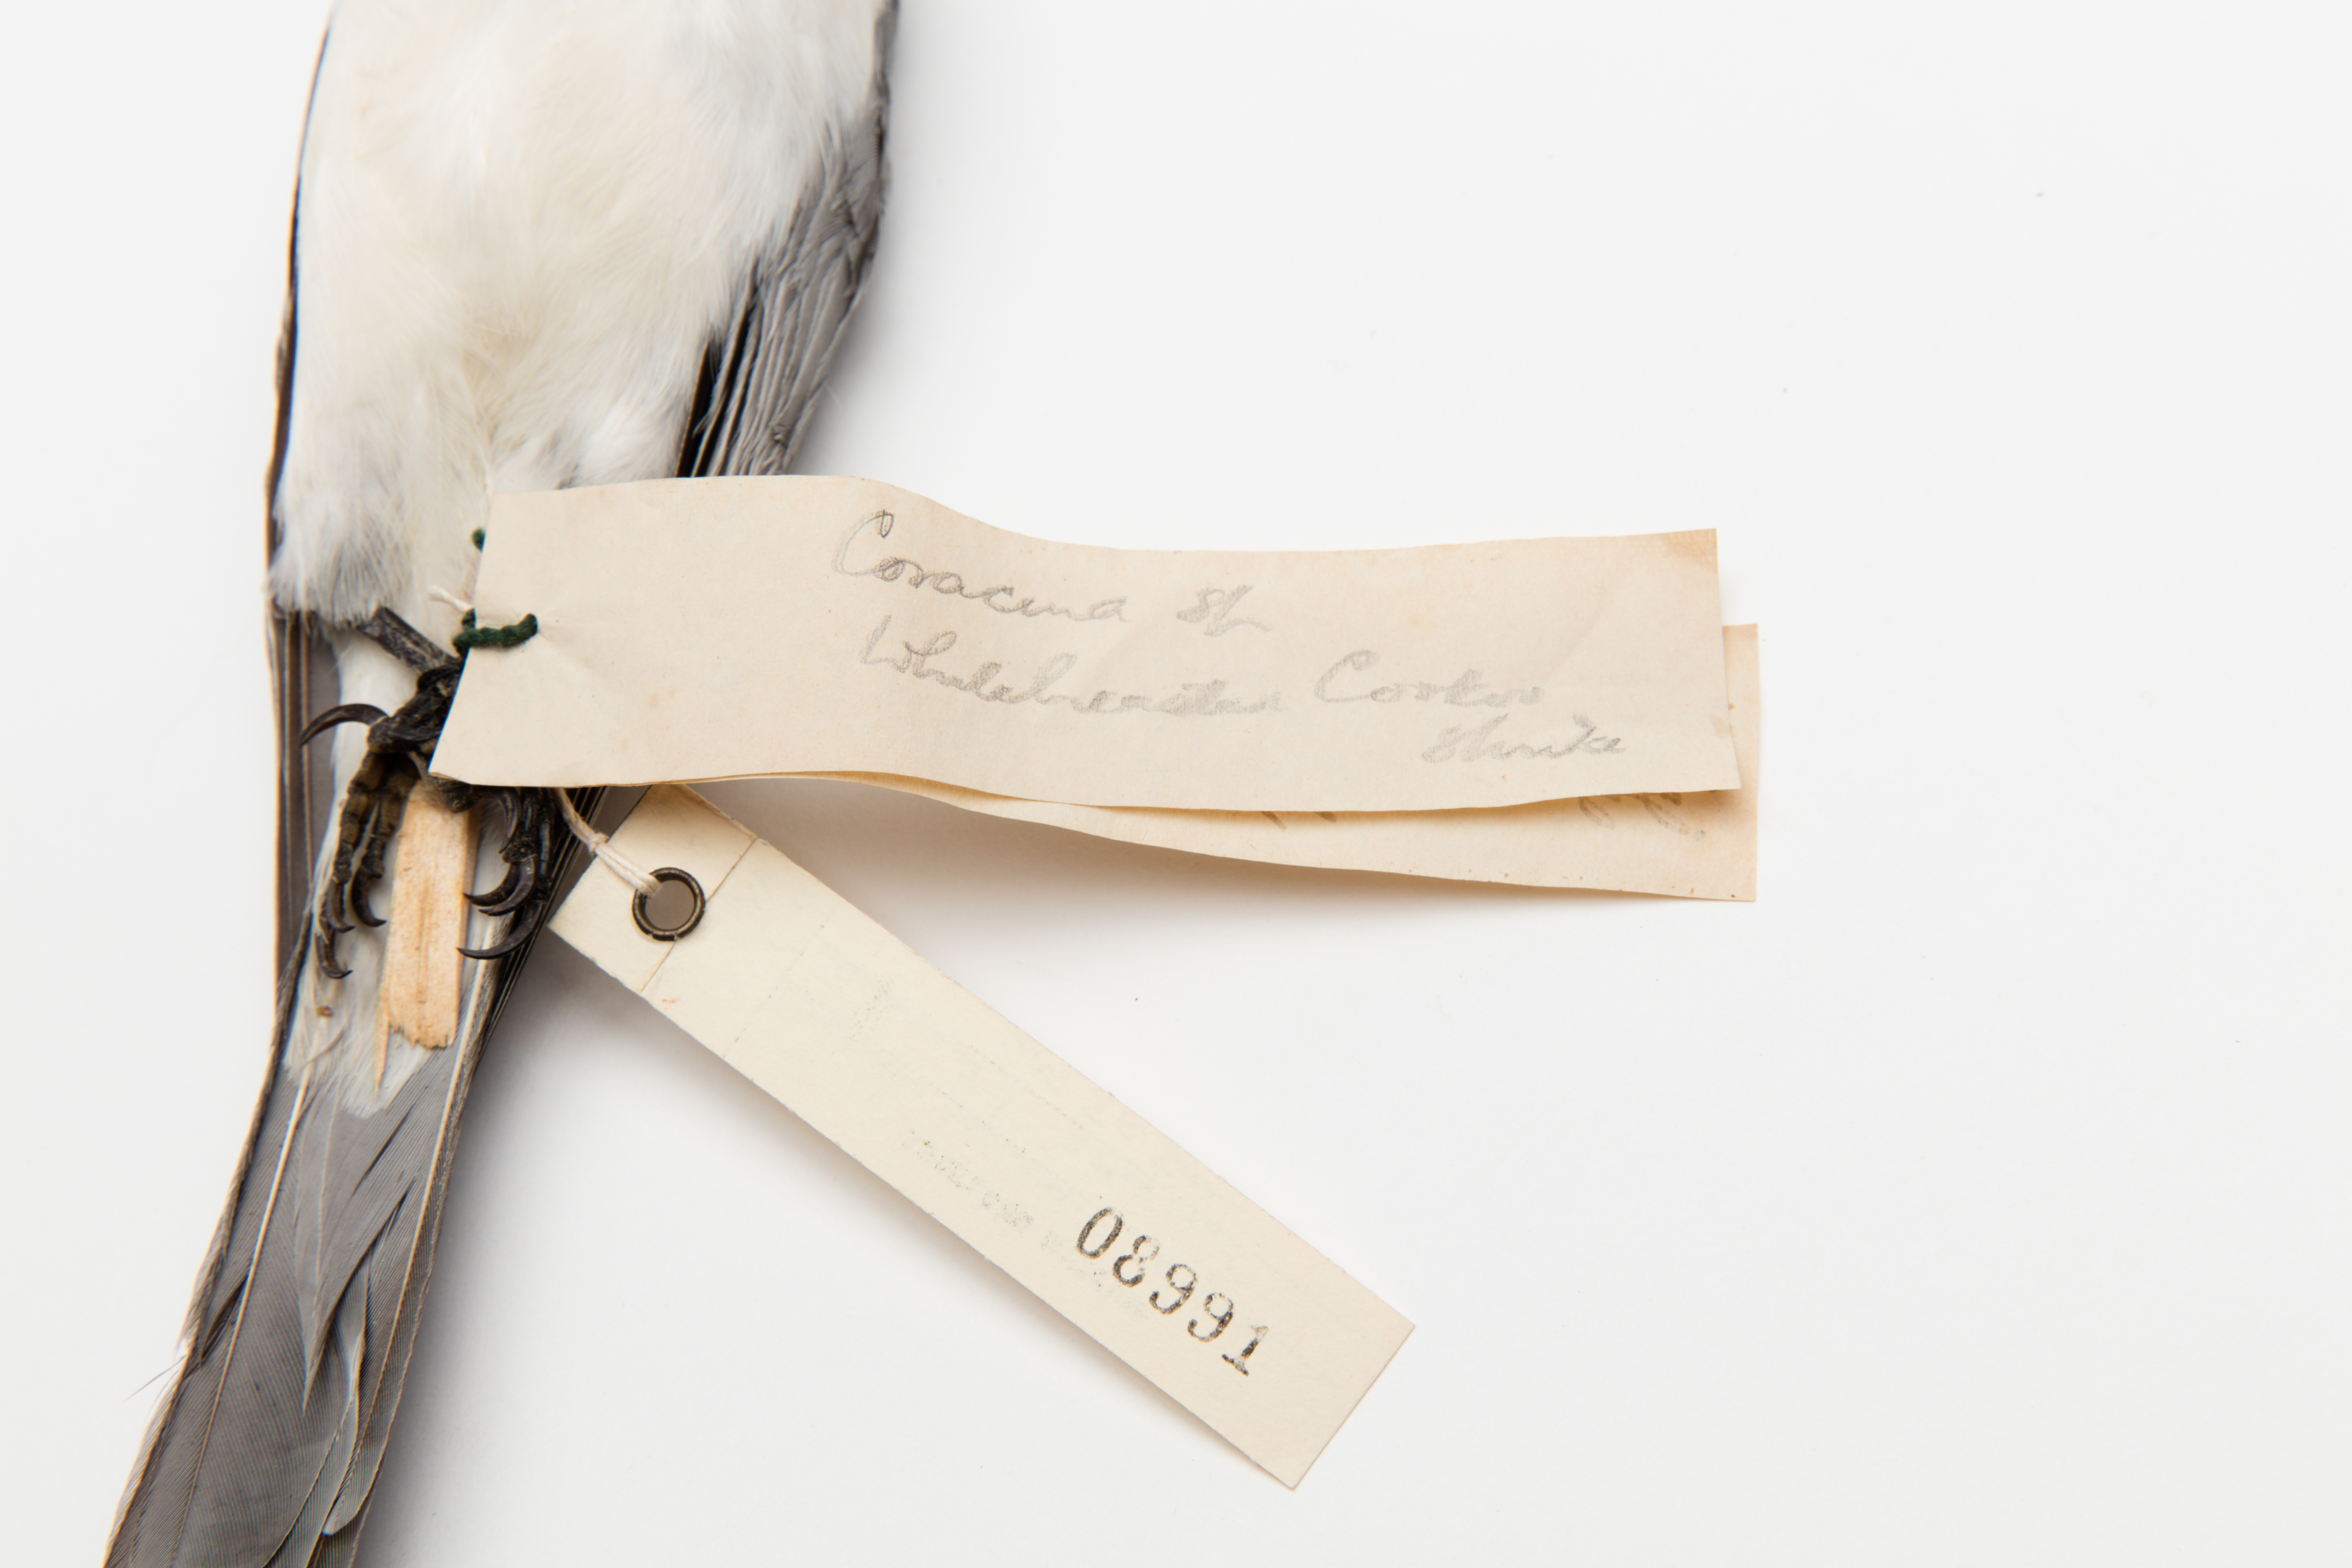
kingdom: Animalia
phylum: Chordata
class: Aves
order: Passeriformes
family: Campephagidae
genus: Coracina
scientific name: Coracina papuensis
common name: White-bellied cuckooshrike
